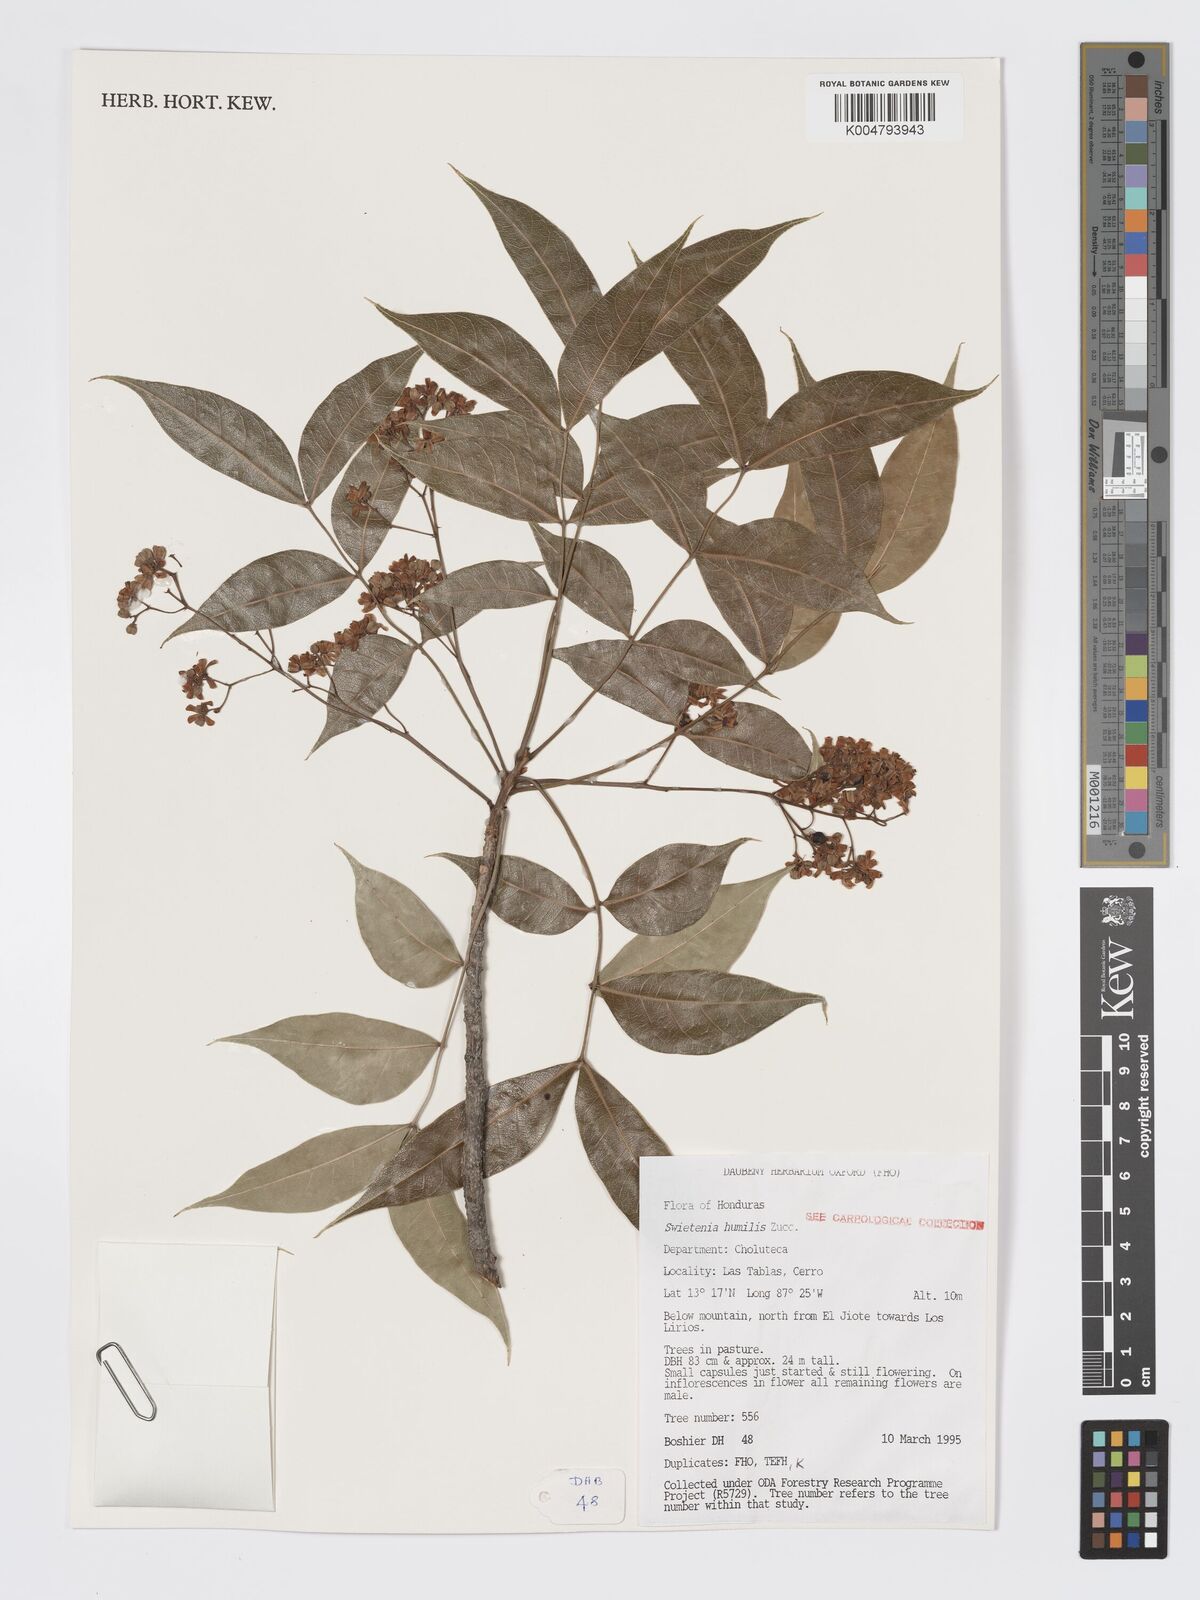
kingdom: Plantae
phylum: Tracheophyta
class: Magnoliopsida
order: Sapindales
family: Meliaceae
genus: Swietenia
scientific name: Swietenia humilis
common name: Pacific coast mahogany
